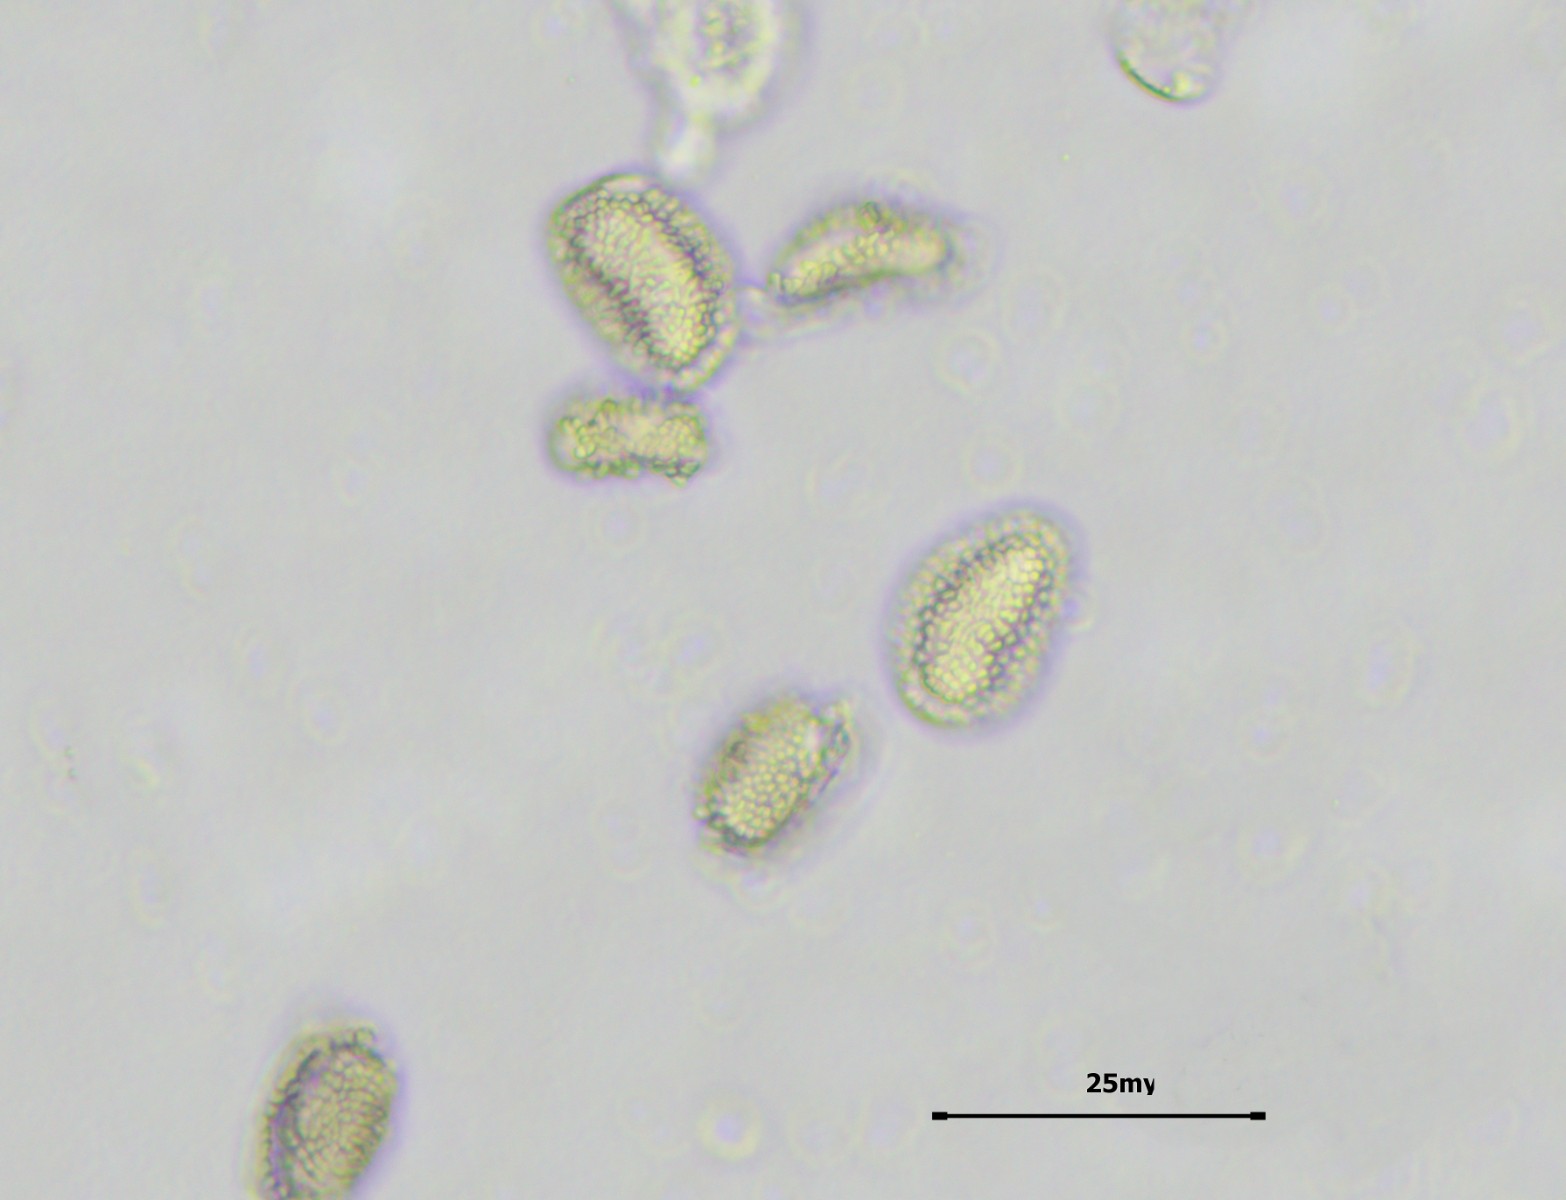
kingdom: Fungi
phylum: Basidiomycota
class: Pucciniomycetes
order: Pucciniales
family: Pucciniastraceae
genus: Thekopsora
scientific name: Thekopsora areolata
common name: grankogle-nålerust
